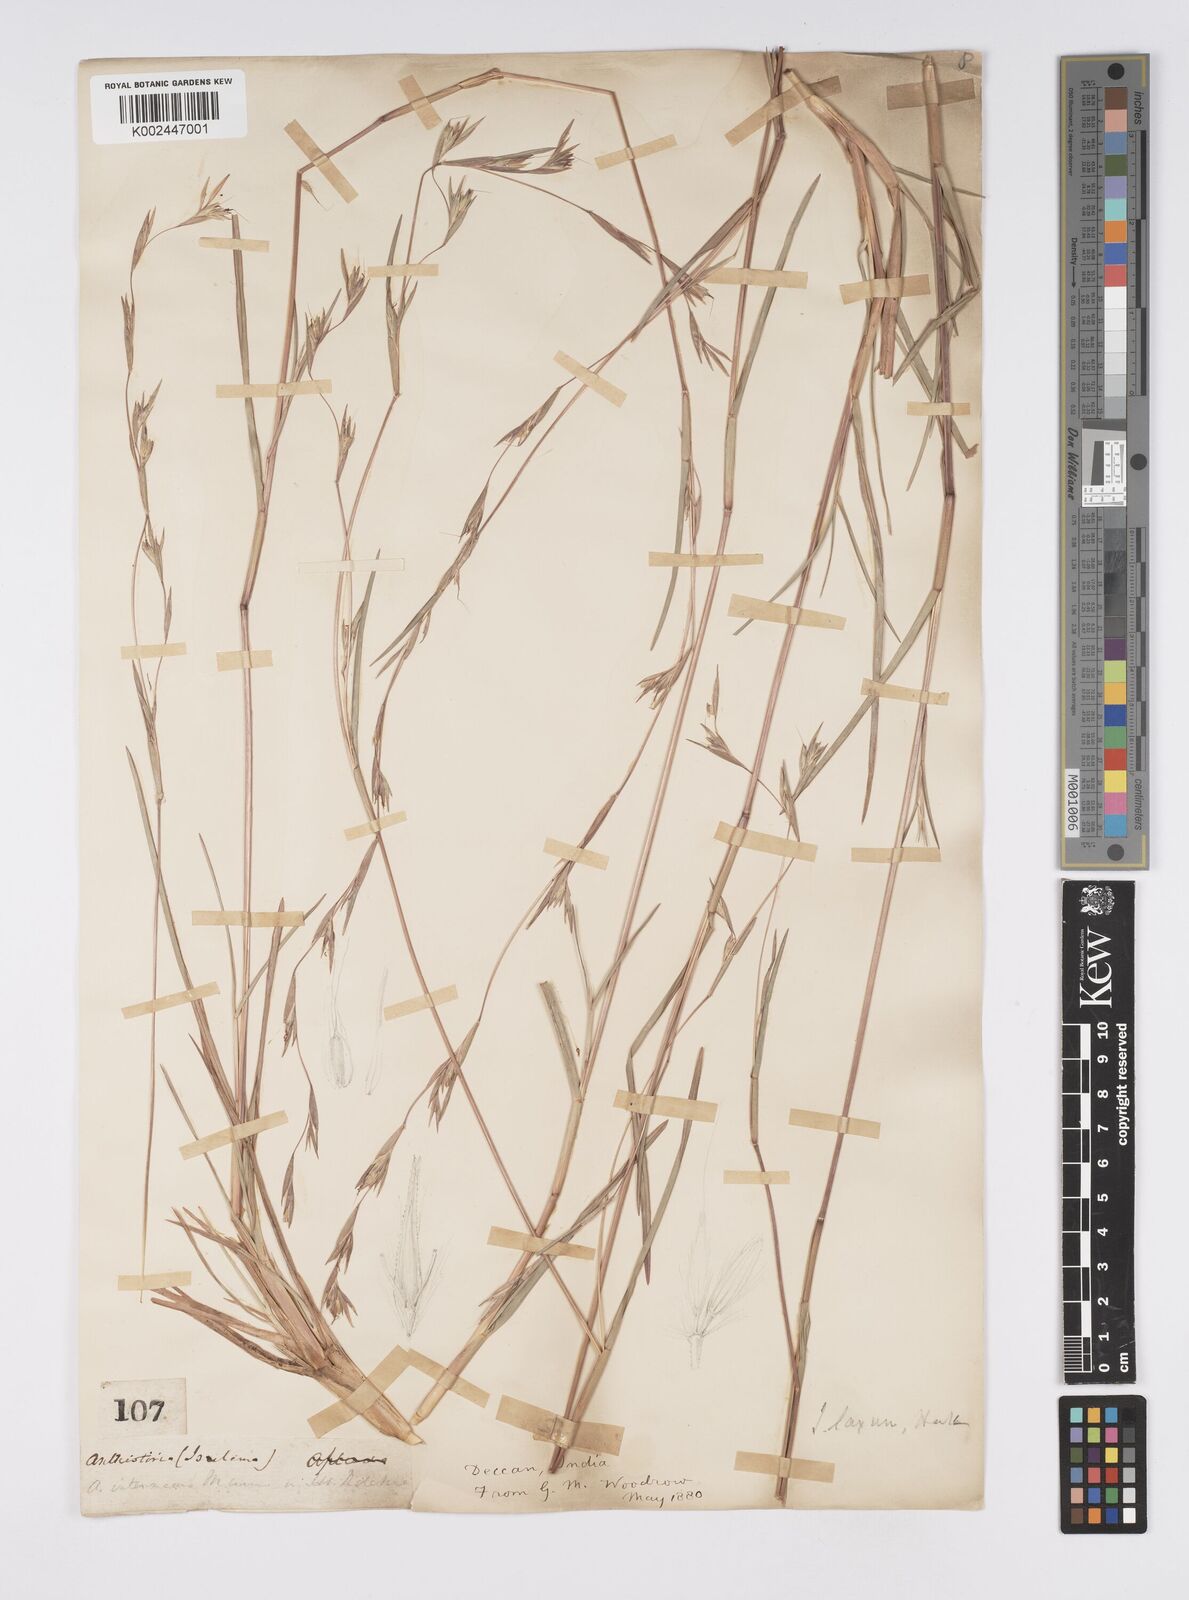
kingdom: Plantae
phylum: Tracheophyta
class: Liliopsida
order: Poales
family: Poaceae
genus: Iseilema
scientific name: Iseilema prostratum
